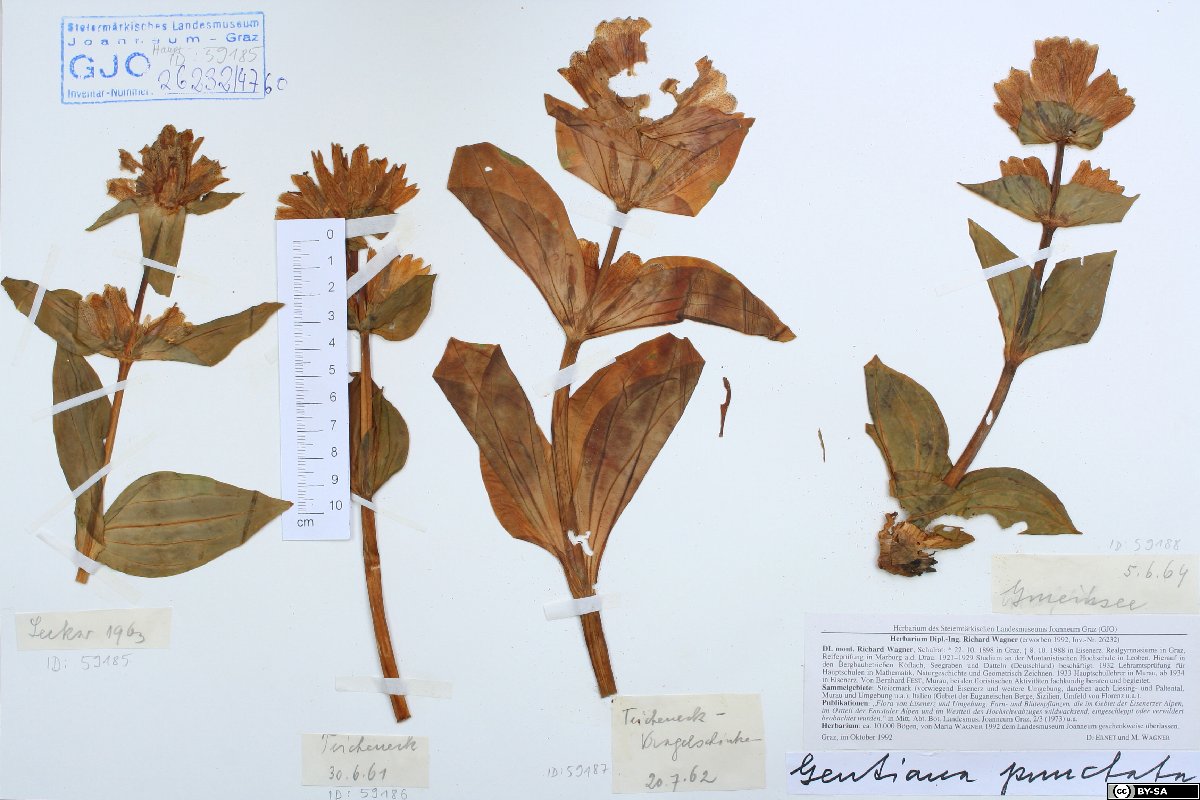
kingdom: Plantae
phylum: Tracheophyta
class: Magnoliopsida
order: Gentianales
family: Gentianaceae
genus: Gentiana
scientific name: Gentiana punctata
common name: Spotted gentian
